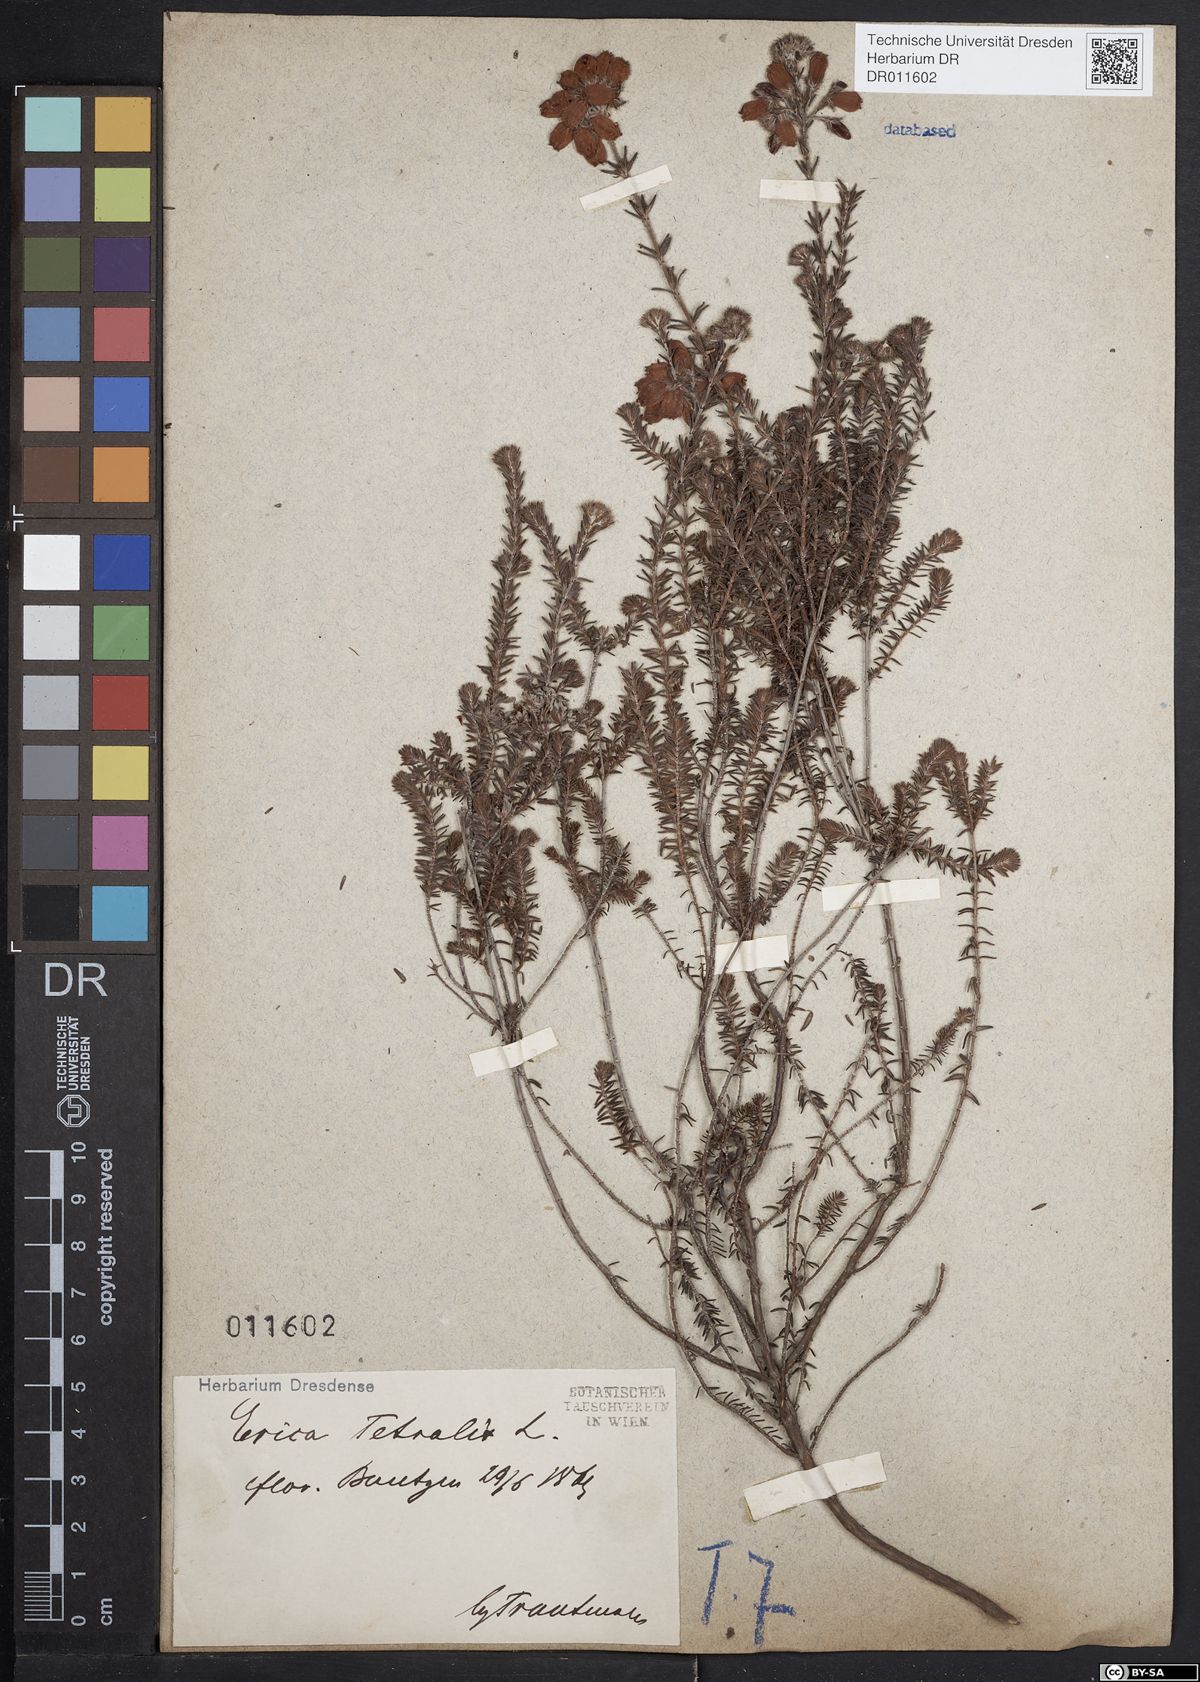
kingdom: Plantae
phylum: Tracheophyta
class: Magnoliopsida
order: Ericales
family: Ericaceae
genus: Erica
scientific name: Erica tetralix
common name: Cross-leaved heath
